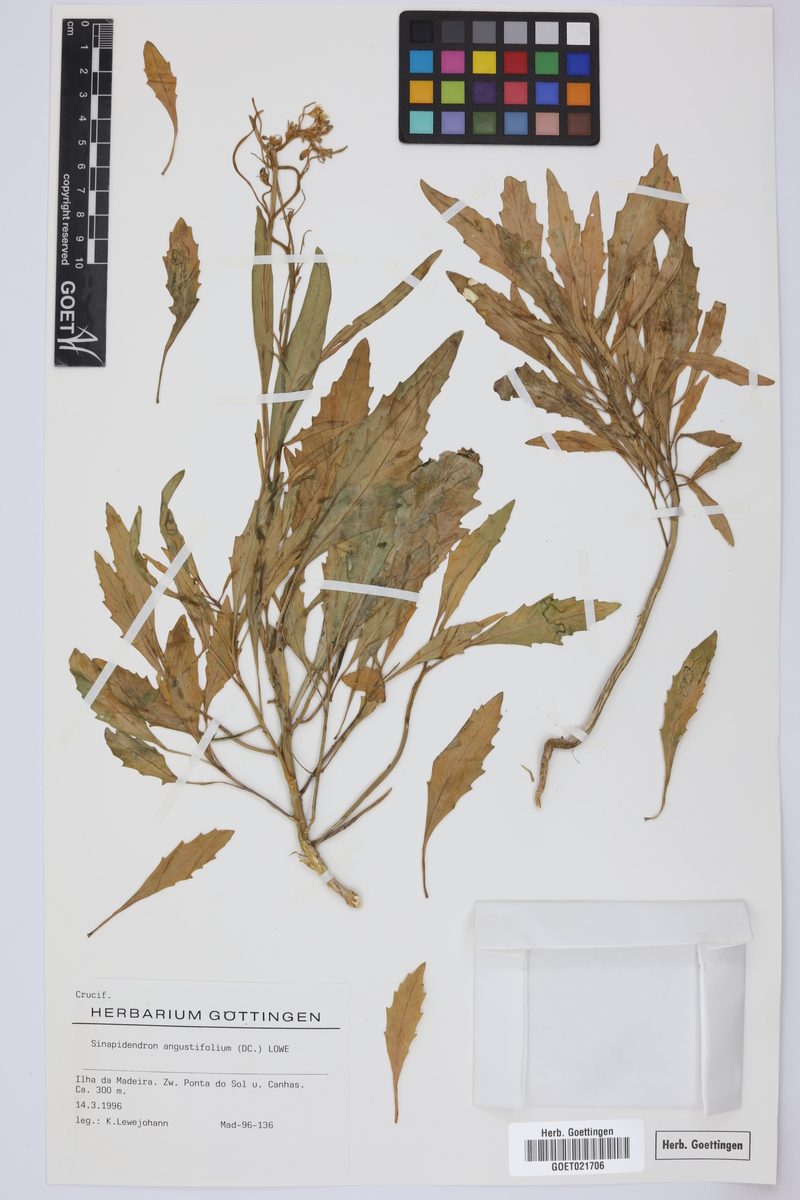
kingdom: Plantae
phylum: Tracheophyta
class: Magnoliopsida
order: Brassicales
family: Brassicaceae
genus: Sinapidendron
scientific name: Sinapidendron angustifolium
